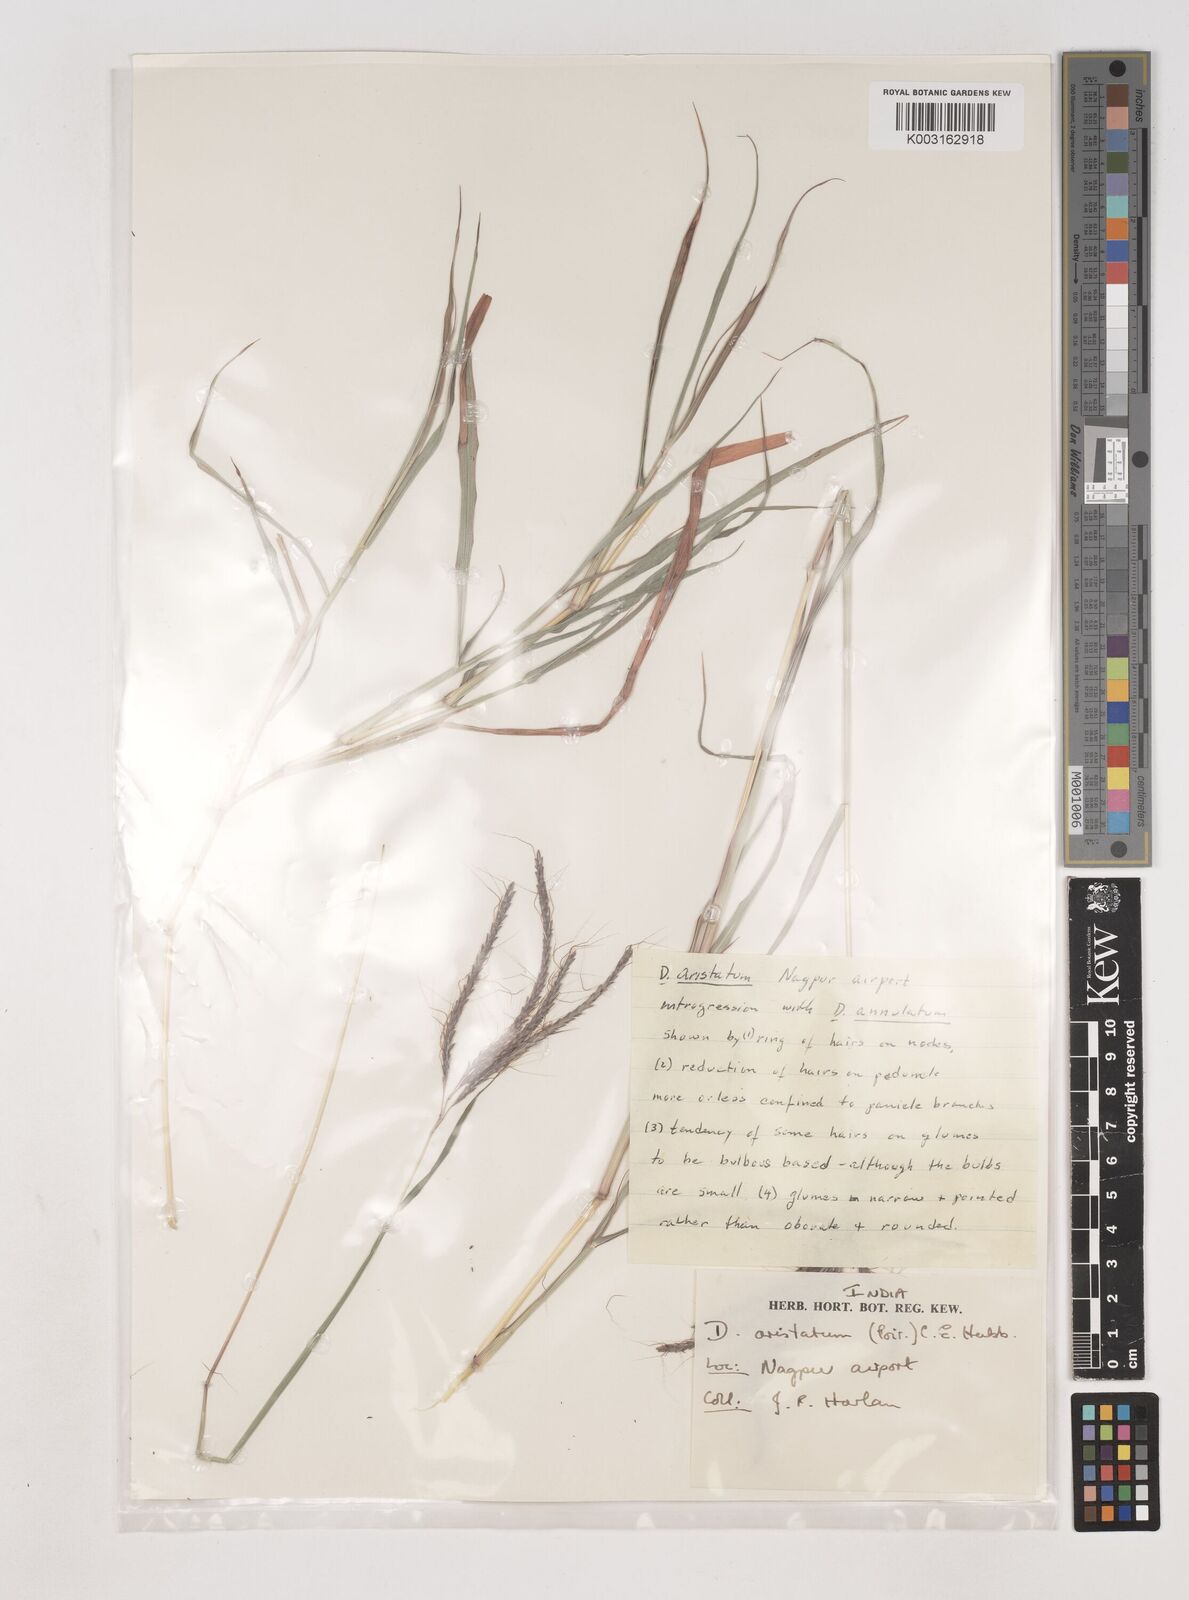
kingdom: Plantae
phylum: Tracheophyta
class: Liliopsida
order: Poales
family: Poaceae
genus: Dichanthium
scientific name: Dichanthium aristatum
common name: Angleton bluestem
